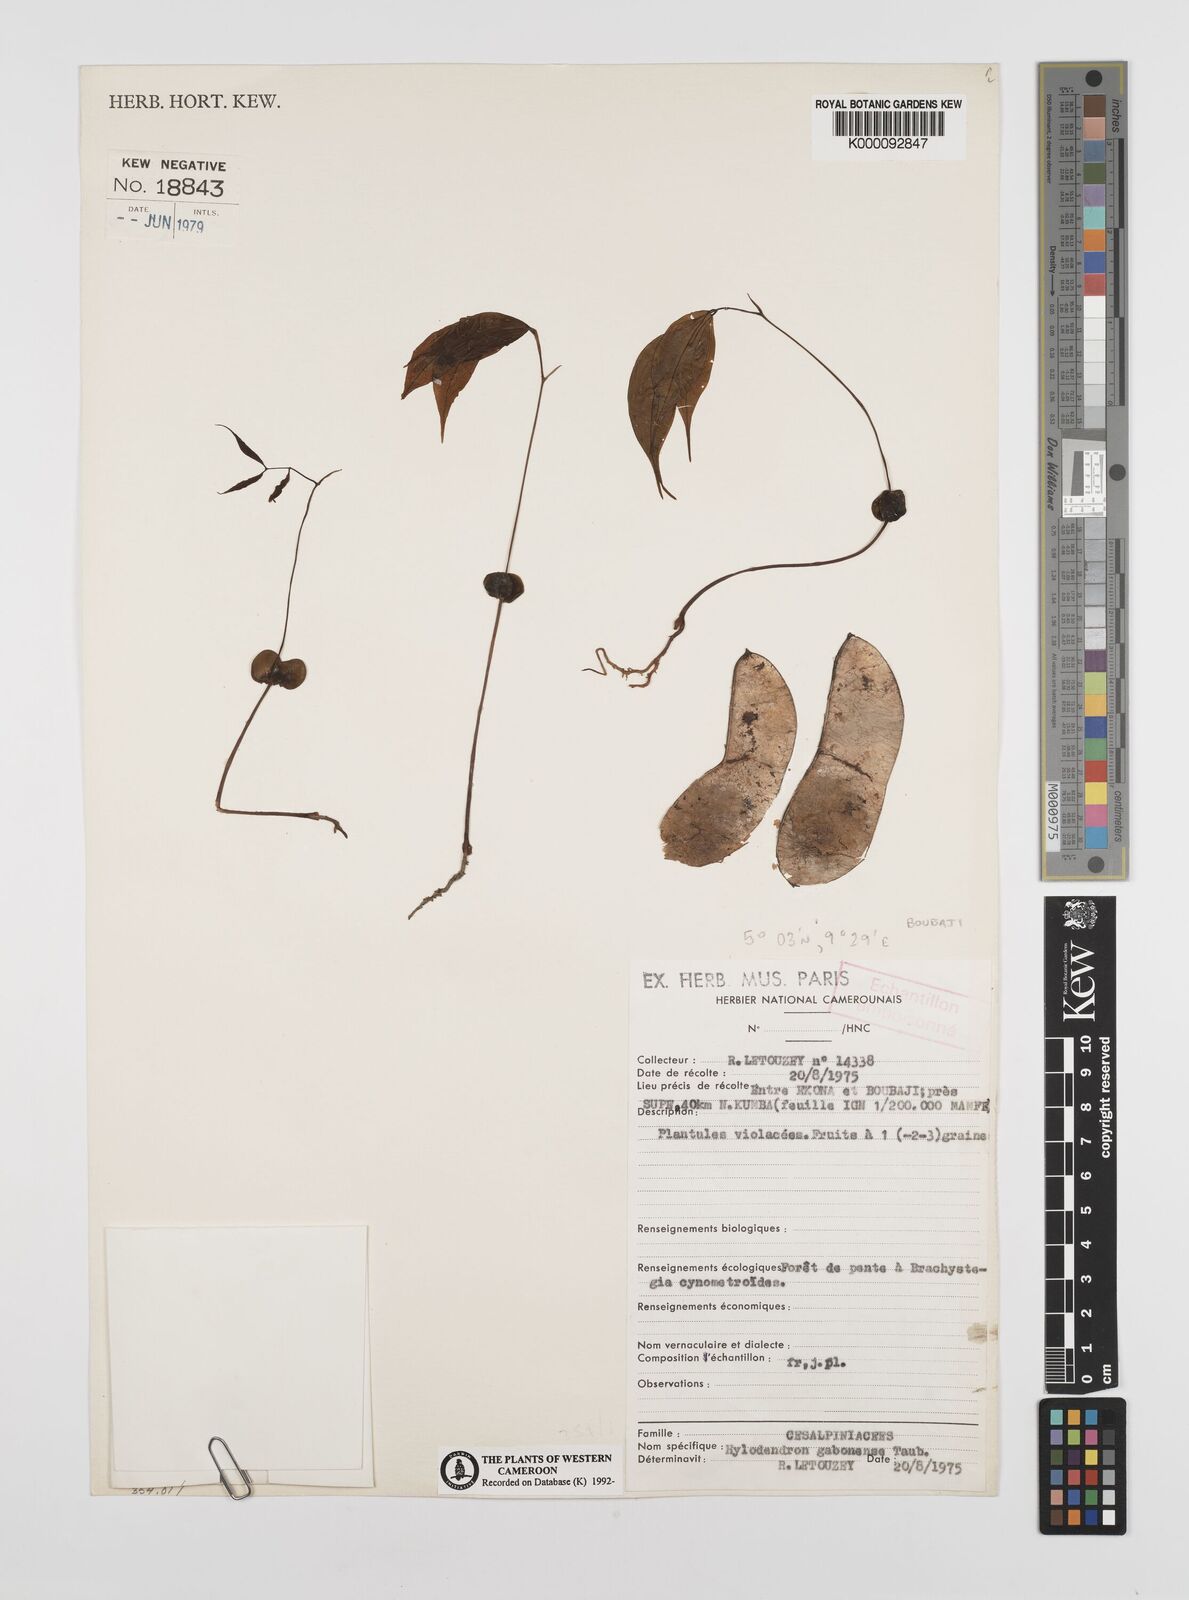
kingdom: Plantae
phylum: Tracheophyta
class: Magnoliopsida
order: Fabales
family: Fabaceae
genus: Hylodendron
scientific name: Hylodendron gabunense
